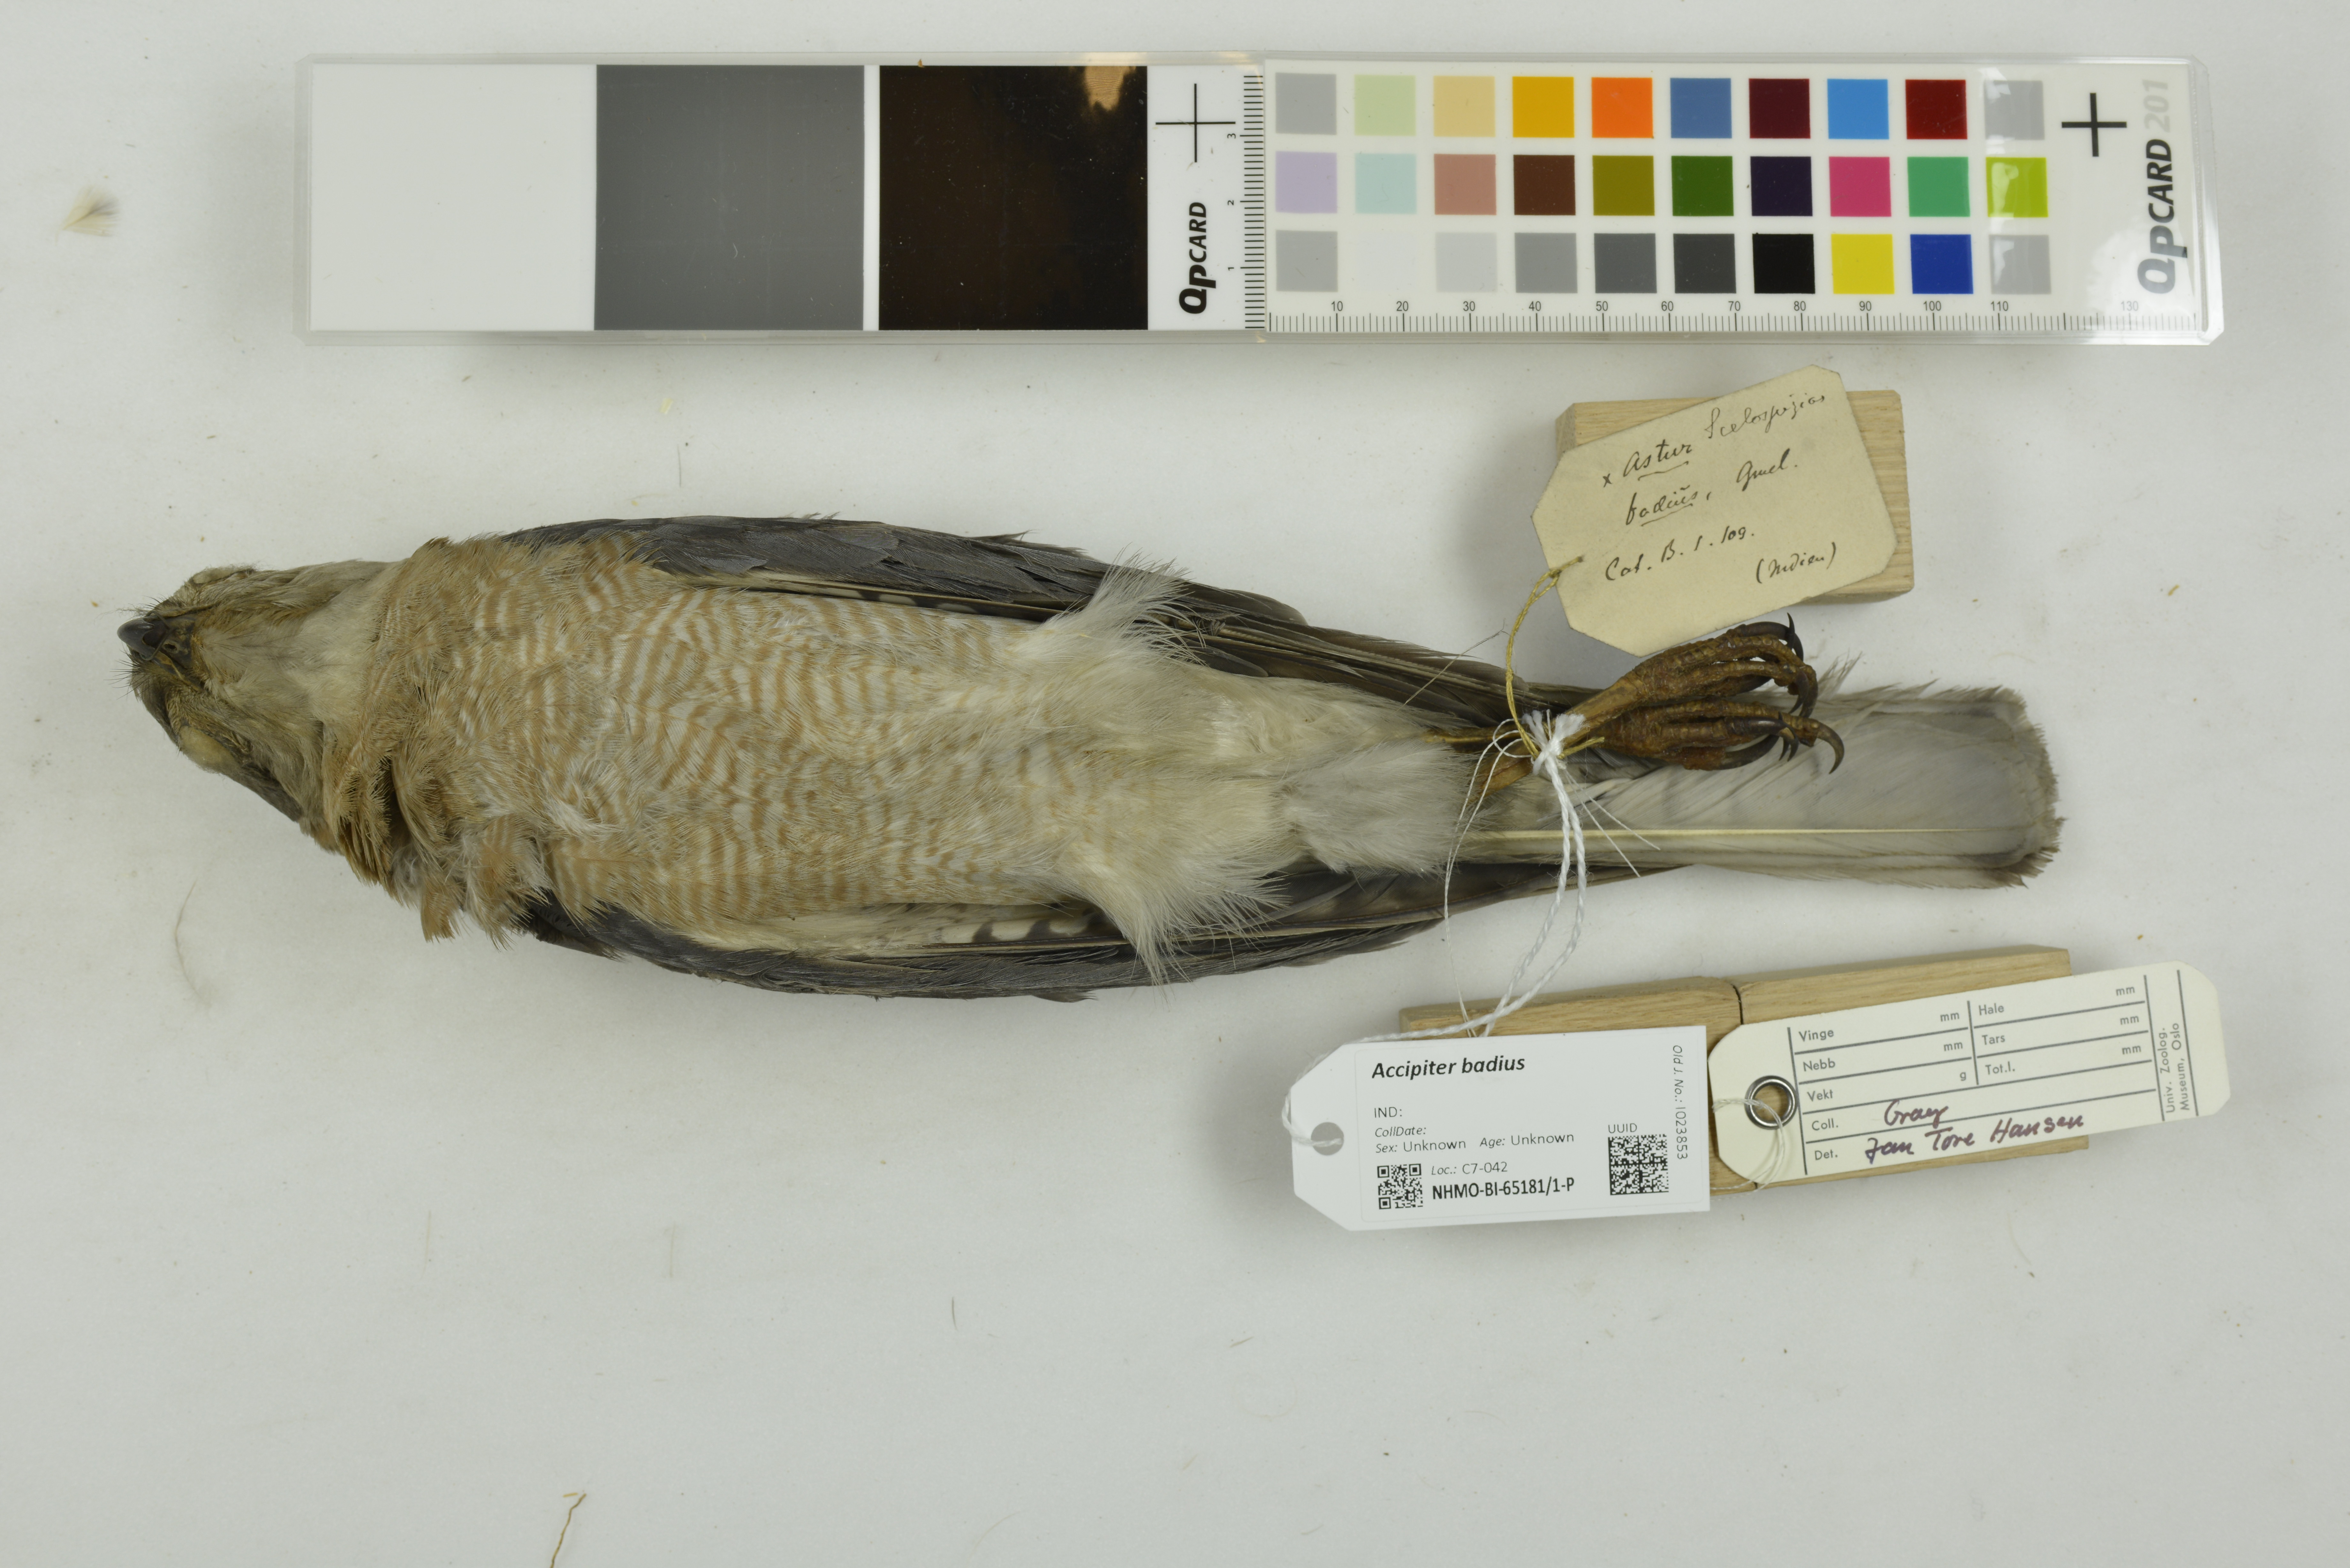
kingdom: Animalia
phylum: Chordata
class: Aves
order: Accipitriformes
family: Accipitridae
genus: Accipiter
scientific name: Accipiter badius
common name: Shikra
